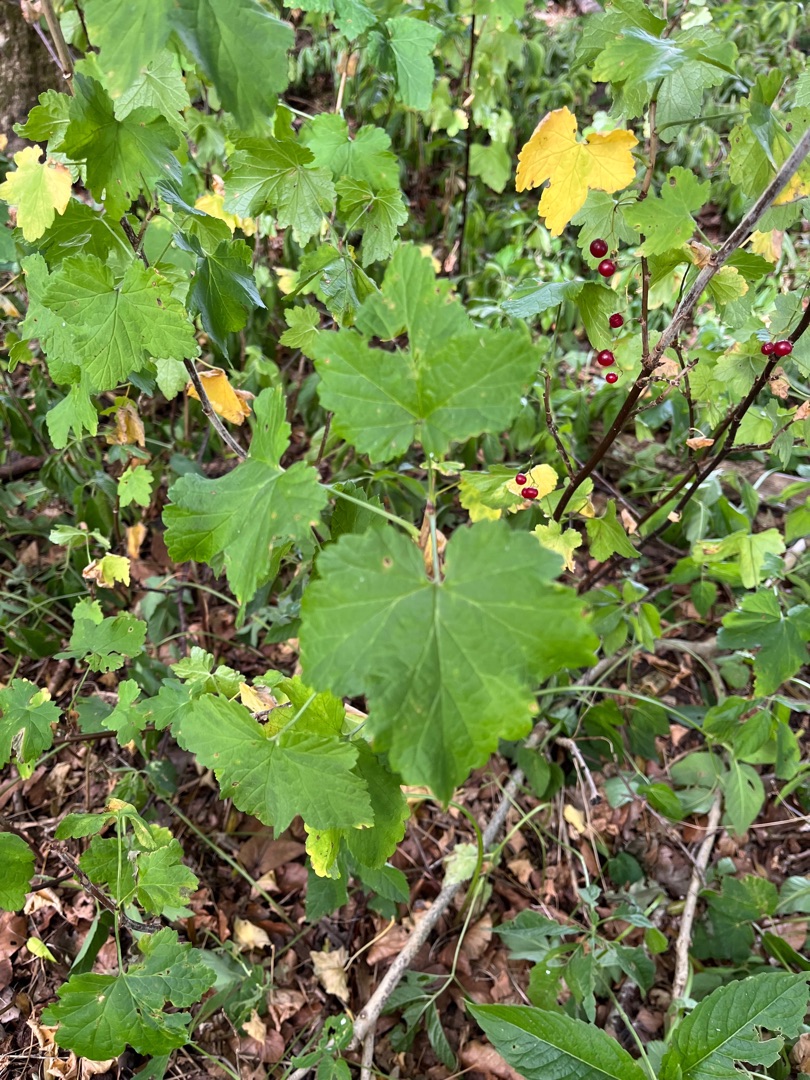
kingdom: Plantae
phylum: Tracheophyta
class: Magnoliopsida
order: Saxifragales
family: Grossulariaceae
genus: Ribes
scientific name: Ribes
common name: Ribsslægten
